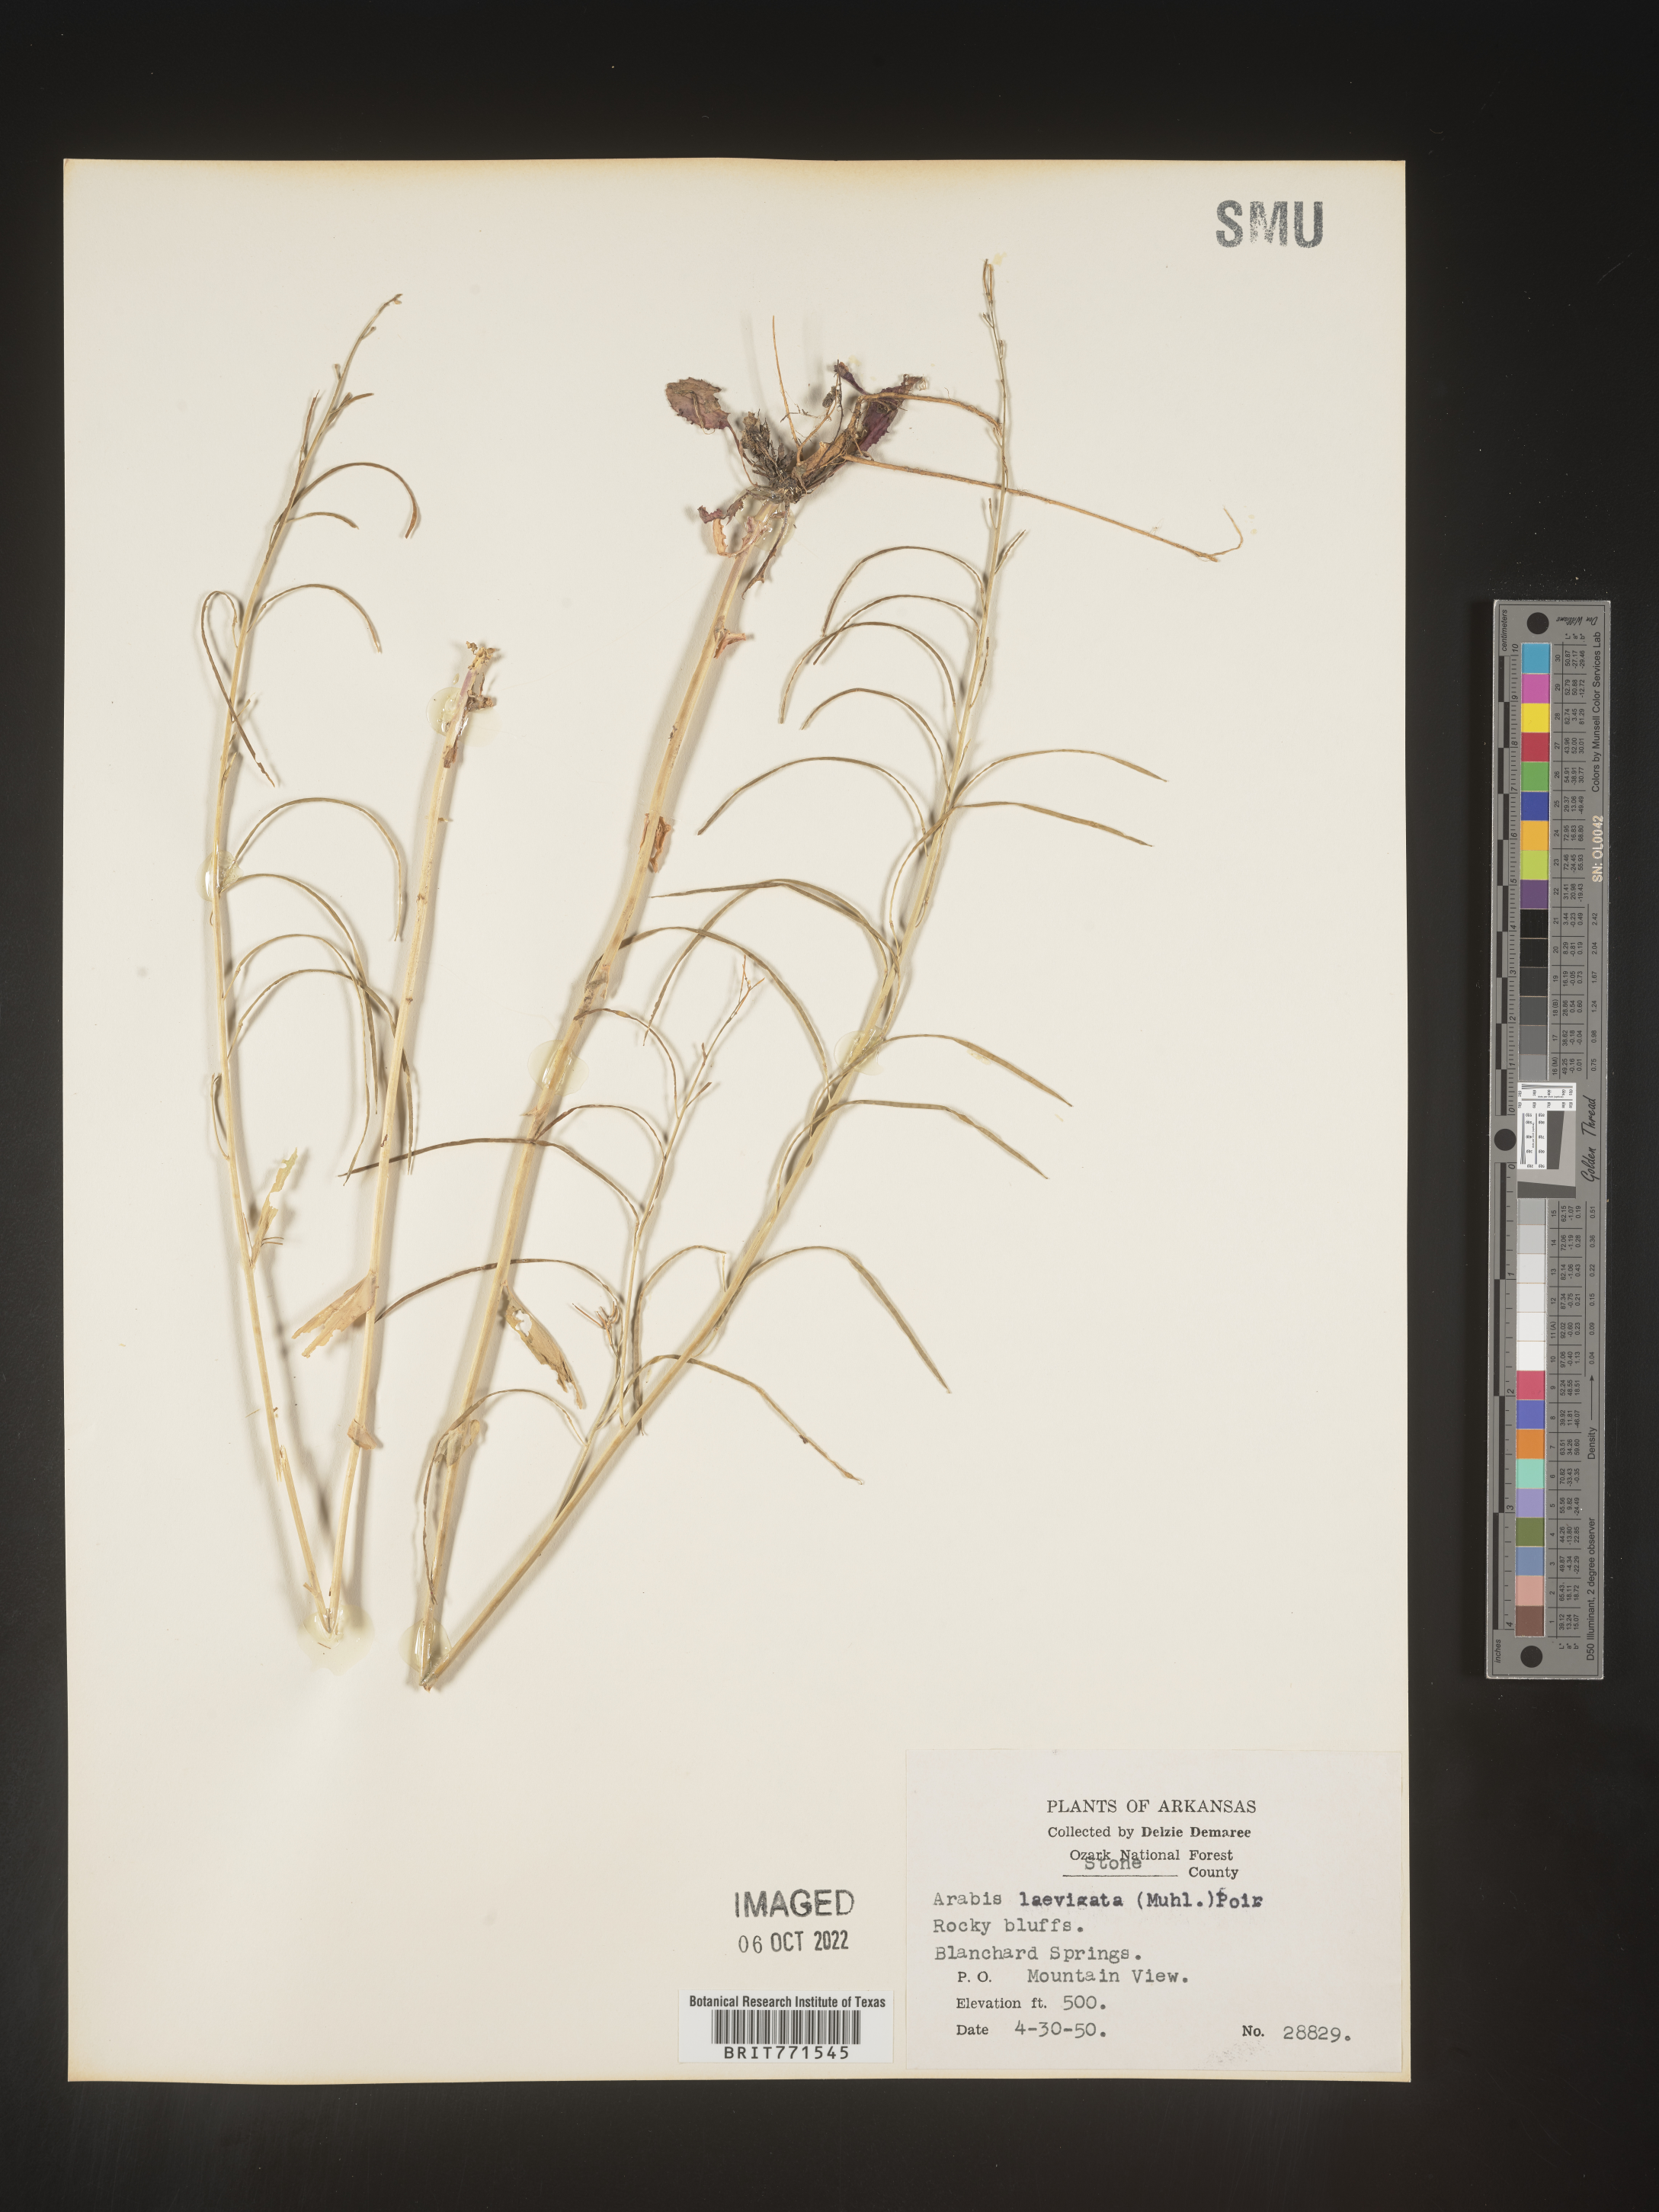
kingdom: Plantae
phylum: Tracheophyta
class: Magnoliopsida
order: Brassicales
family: Brassicaceae
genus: Arabis
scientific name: Arabis laevigata
